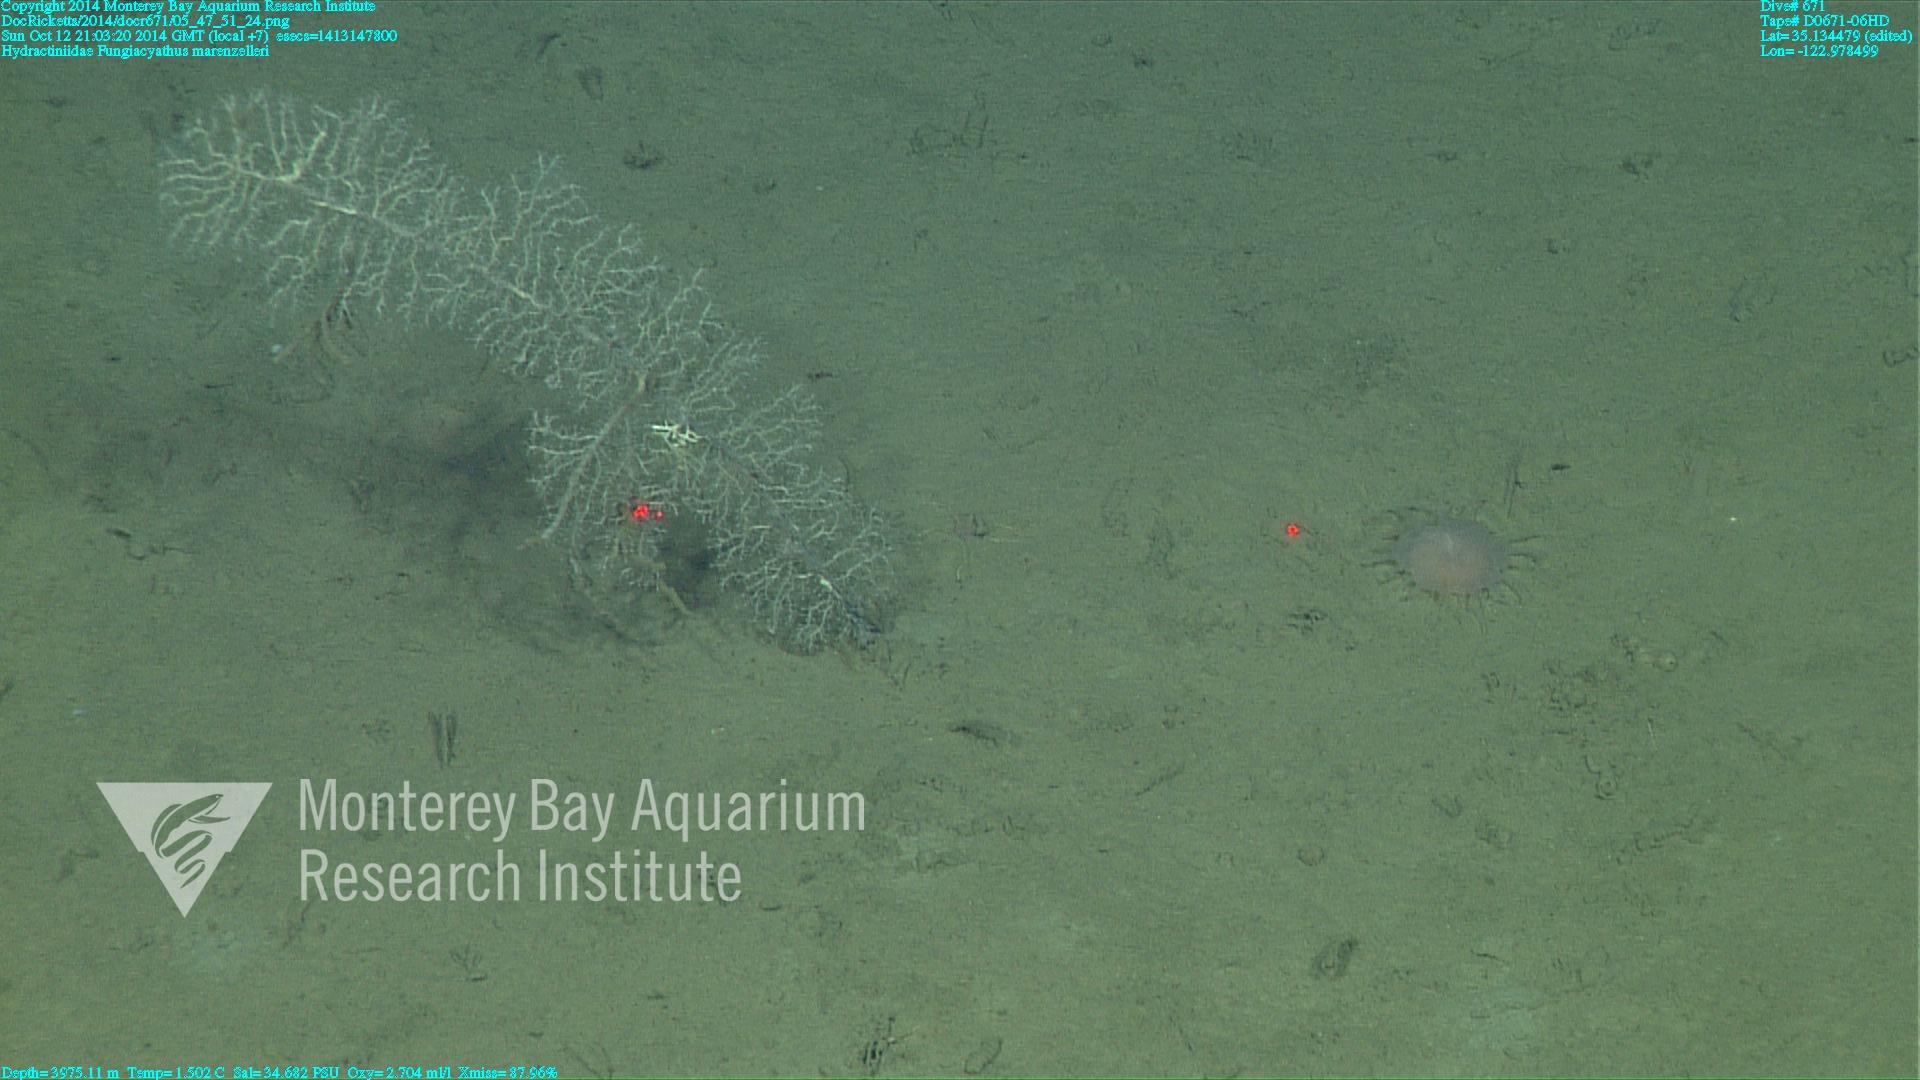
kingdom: Animalia
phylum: Cnidaria
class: Anthozoa
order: Scleractinia
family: Fungiacyathidae
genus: Fungiacyathus
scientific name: Fungiacyathus marenzelleri
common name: Marenzeller's stony coral
